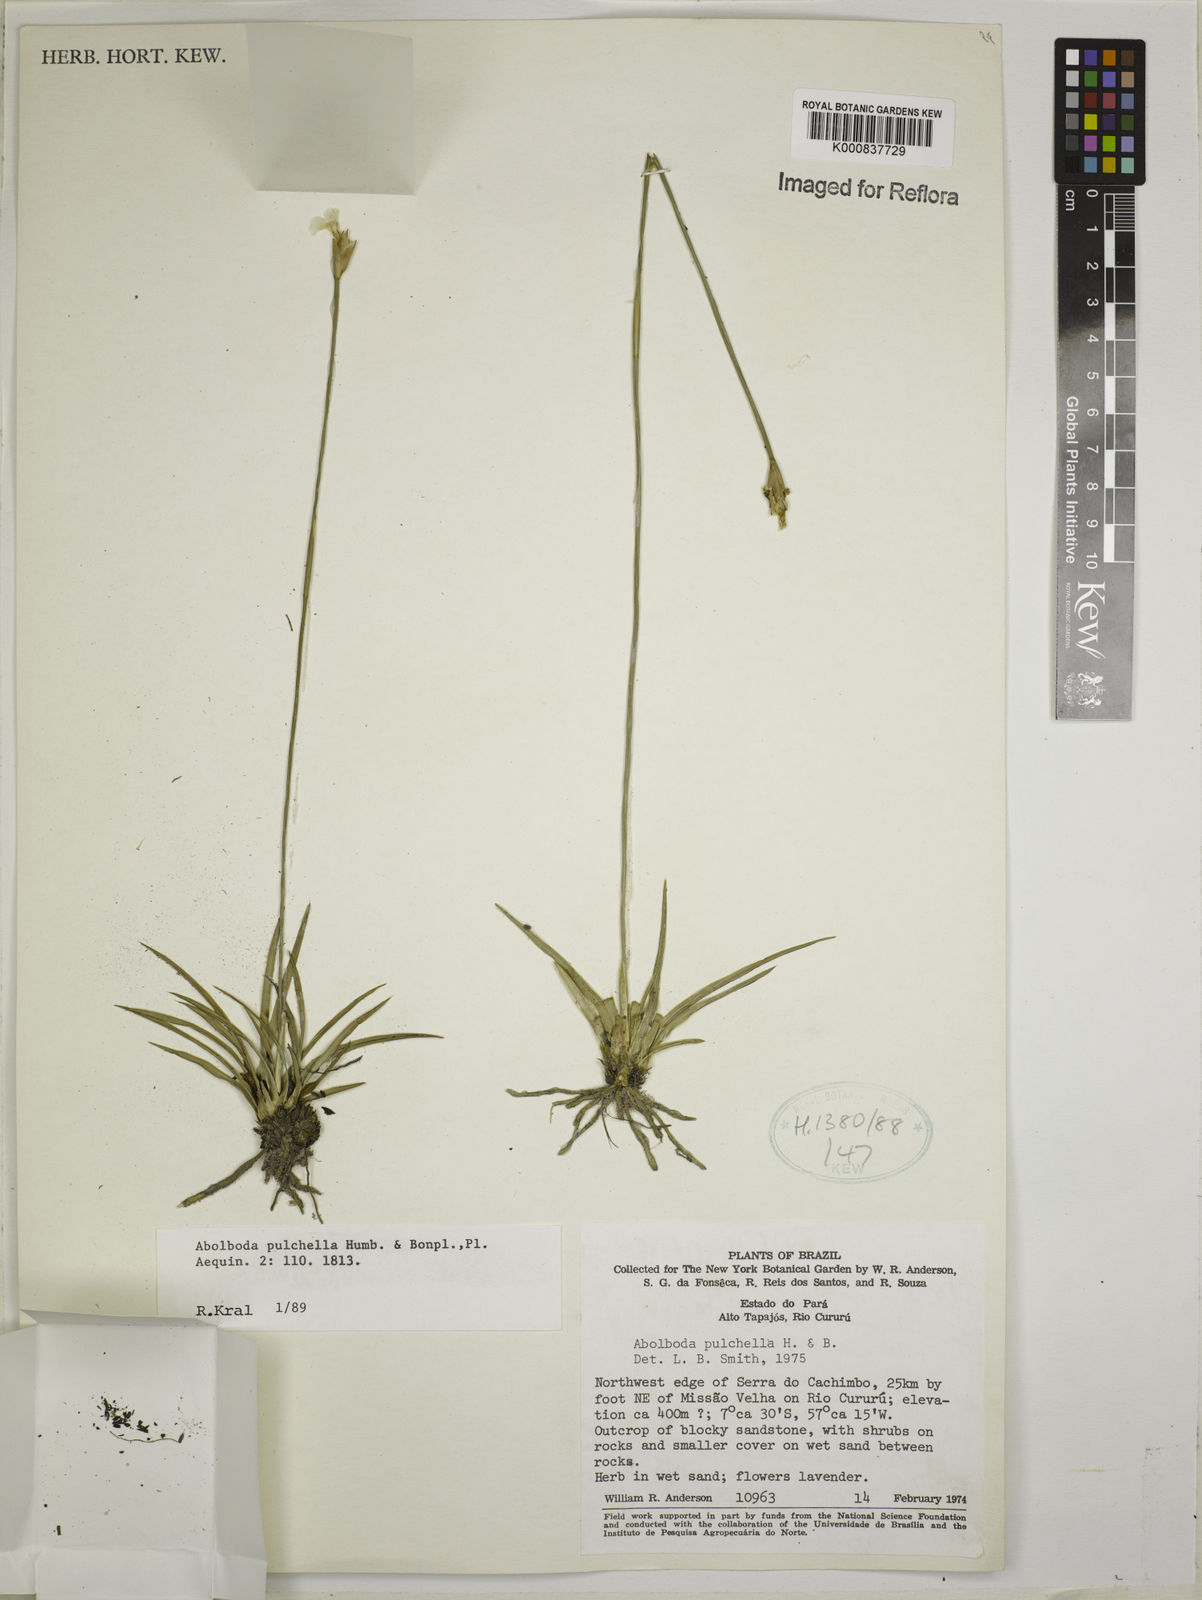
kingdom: Plantae
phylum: Tracheophyta
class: Liliopsida
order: Poales
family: Xyridaceae
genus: Abolboda
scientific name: Abolboda pulchella
